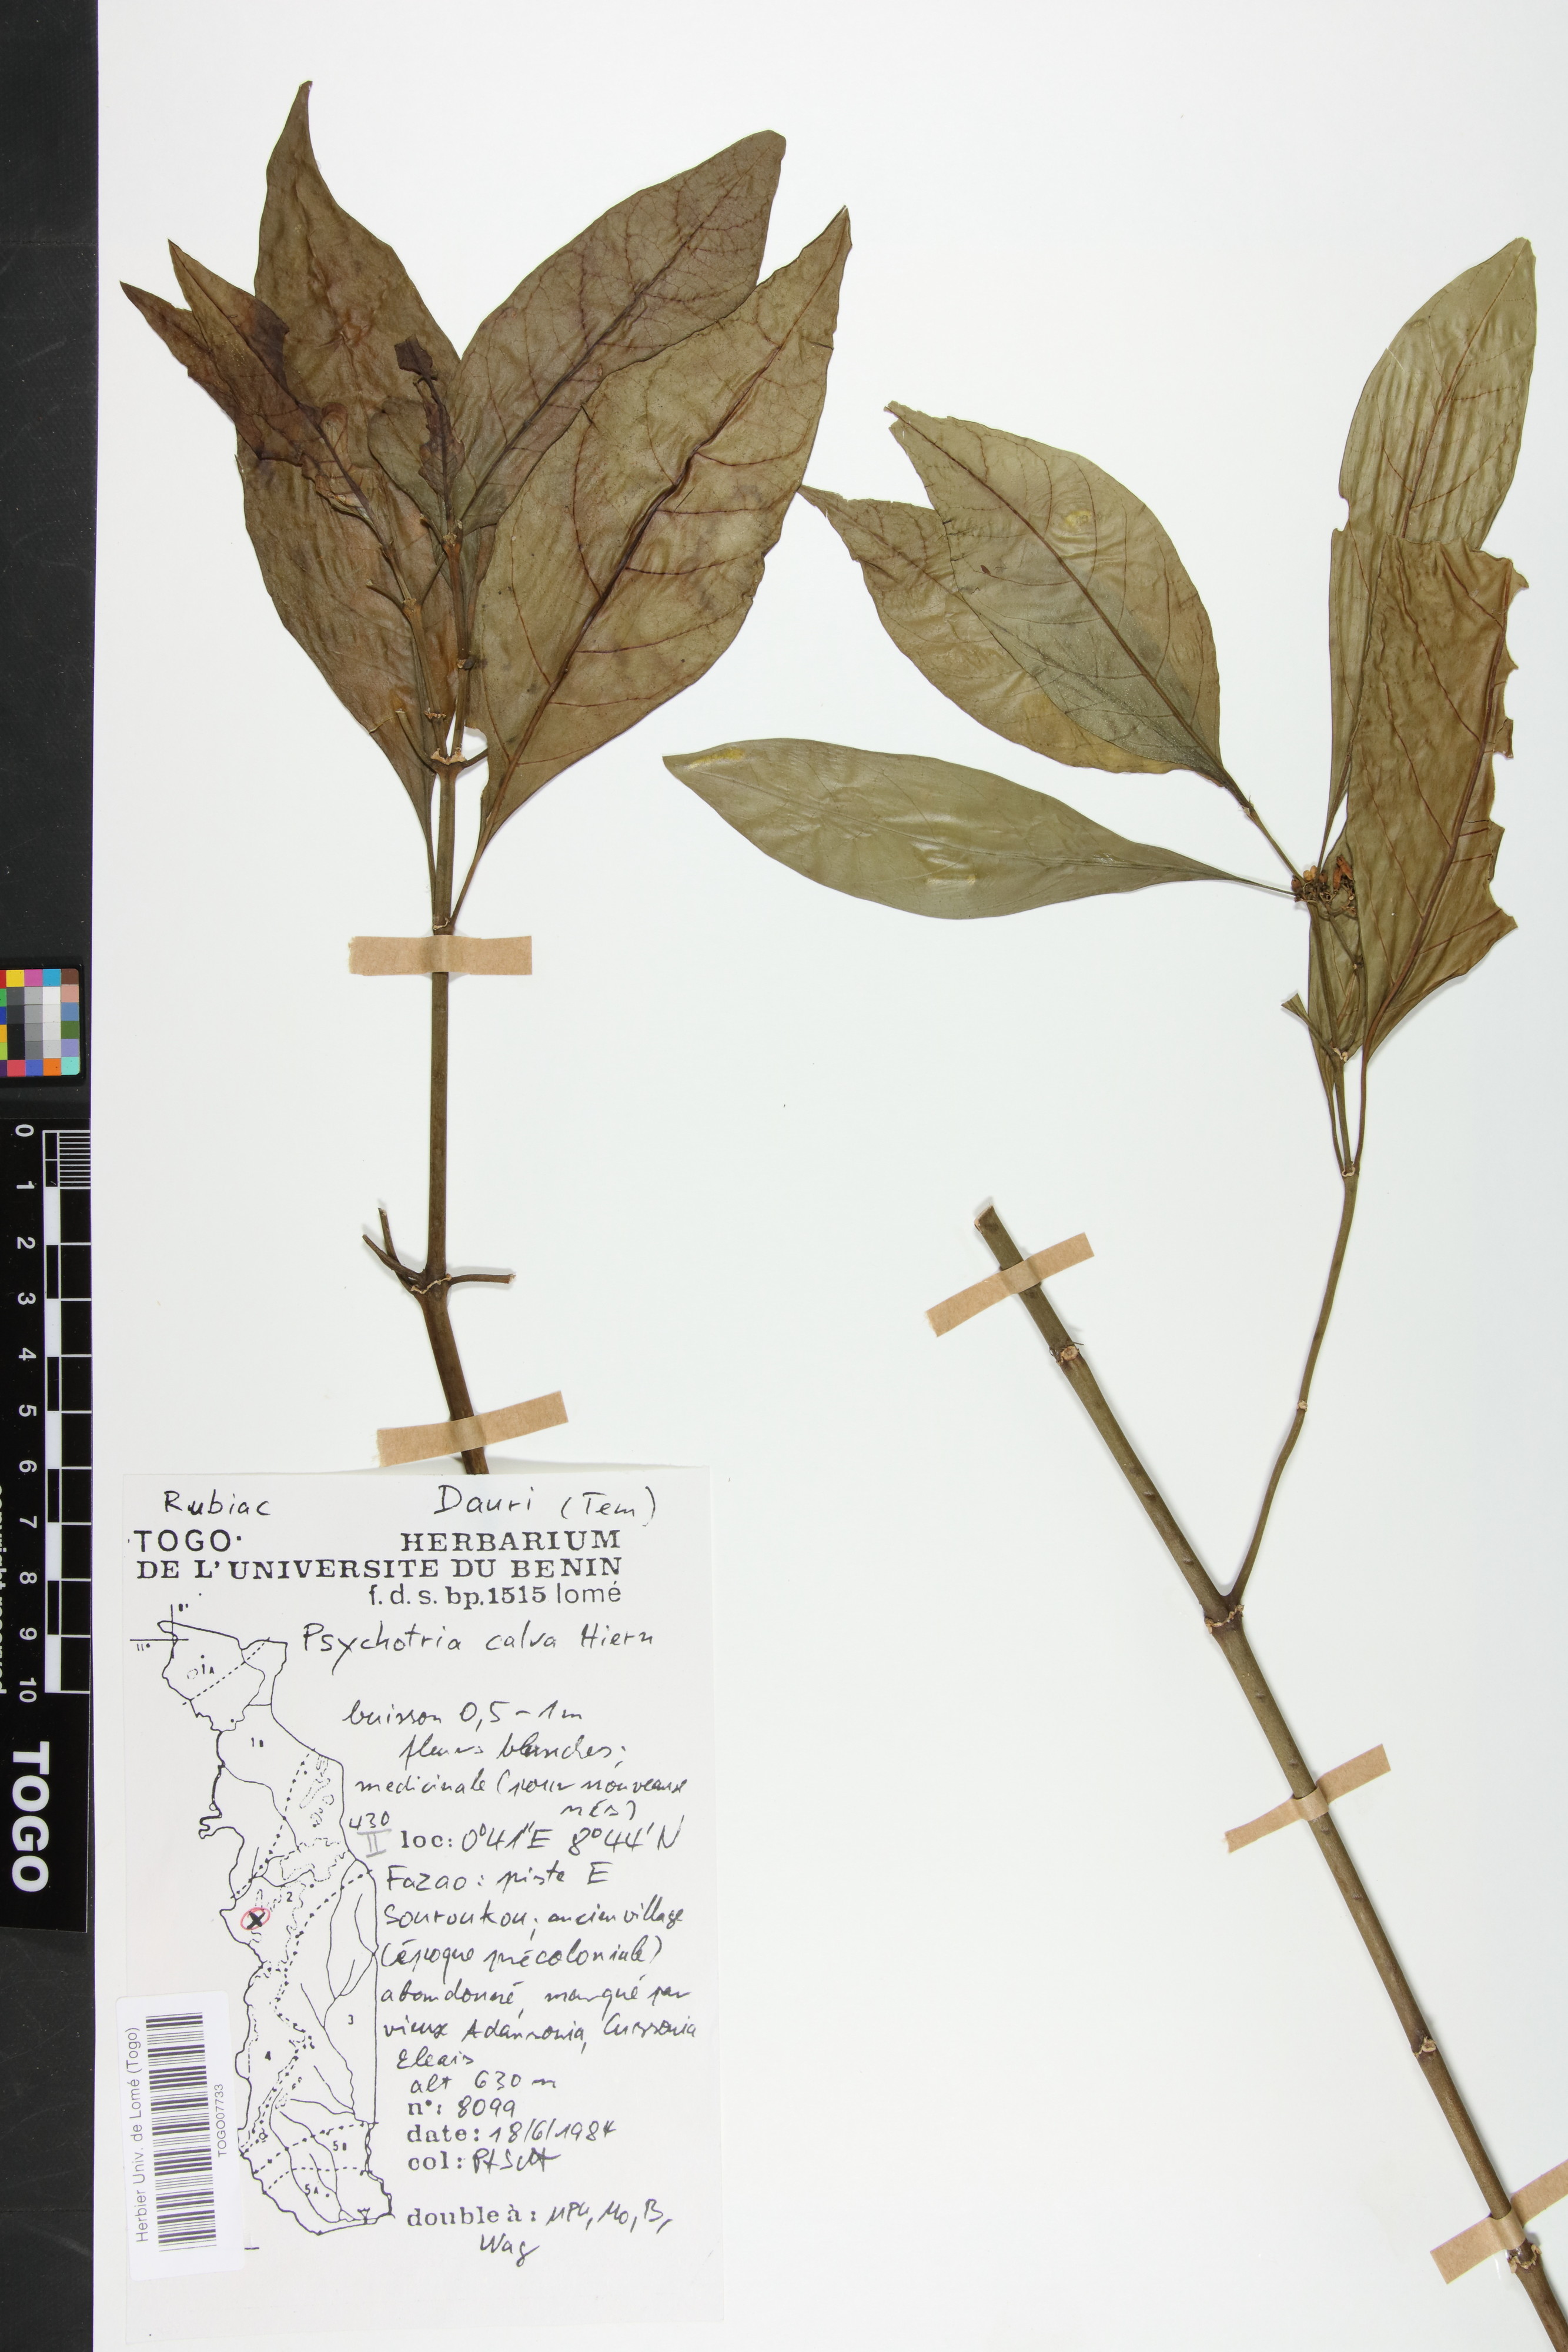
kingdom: Plantae
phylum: Tracheophyta
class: Magnoliopsida
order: Gentianales
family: Rubiaceae
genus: Psychotria
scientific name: Psychotria calva
